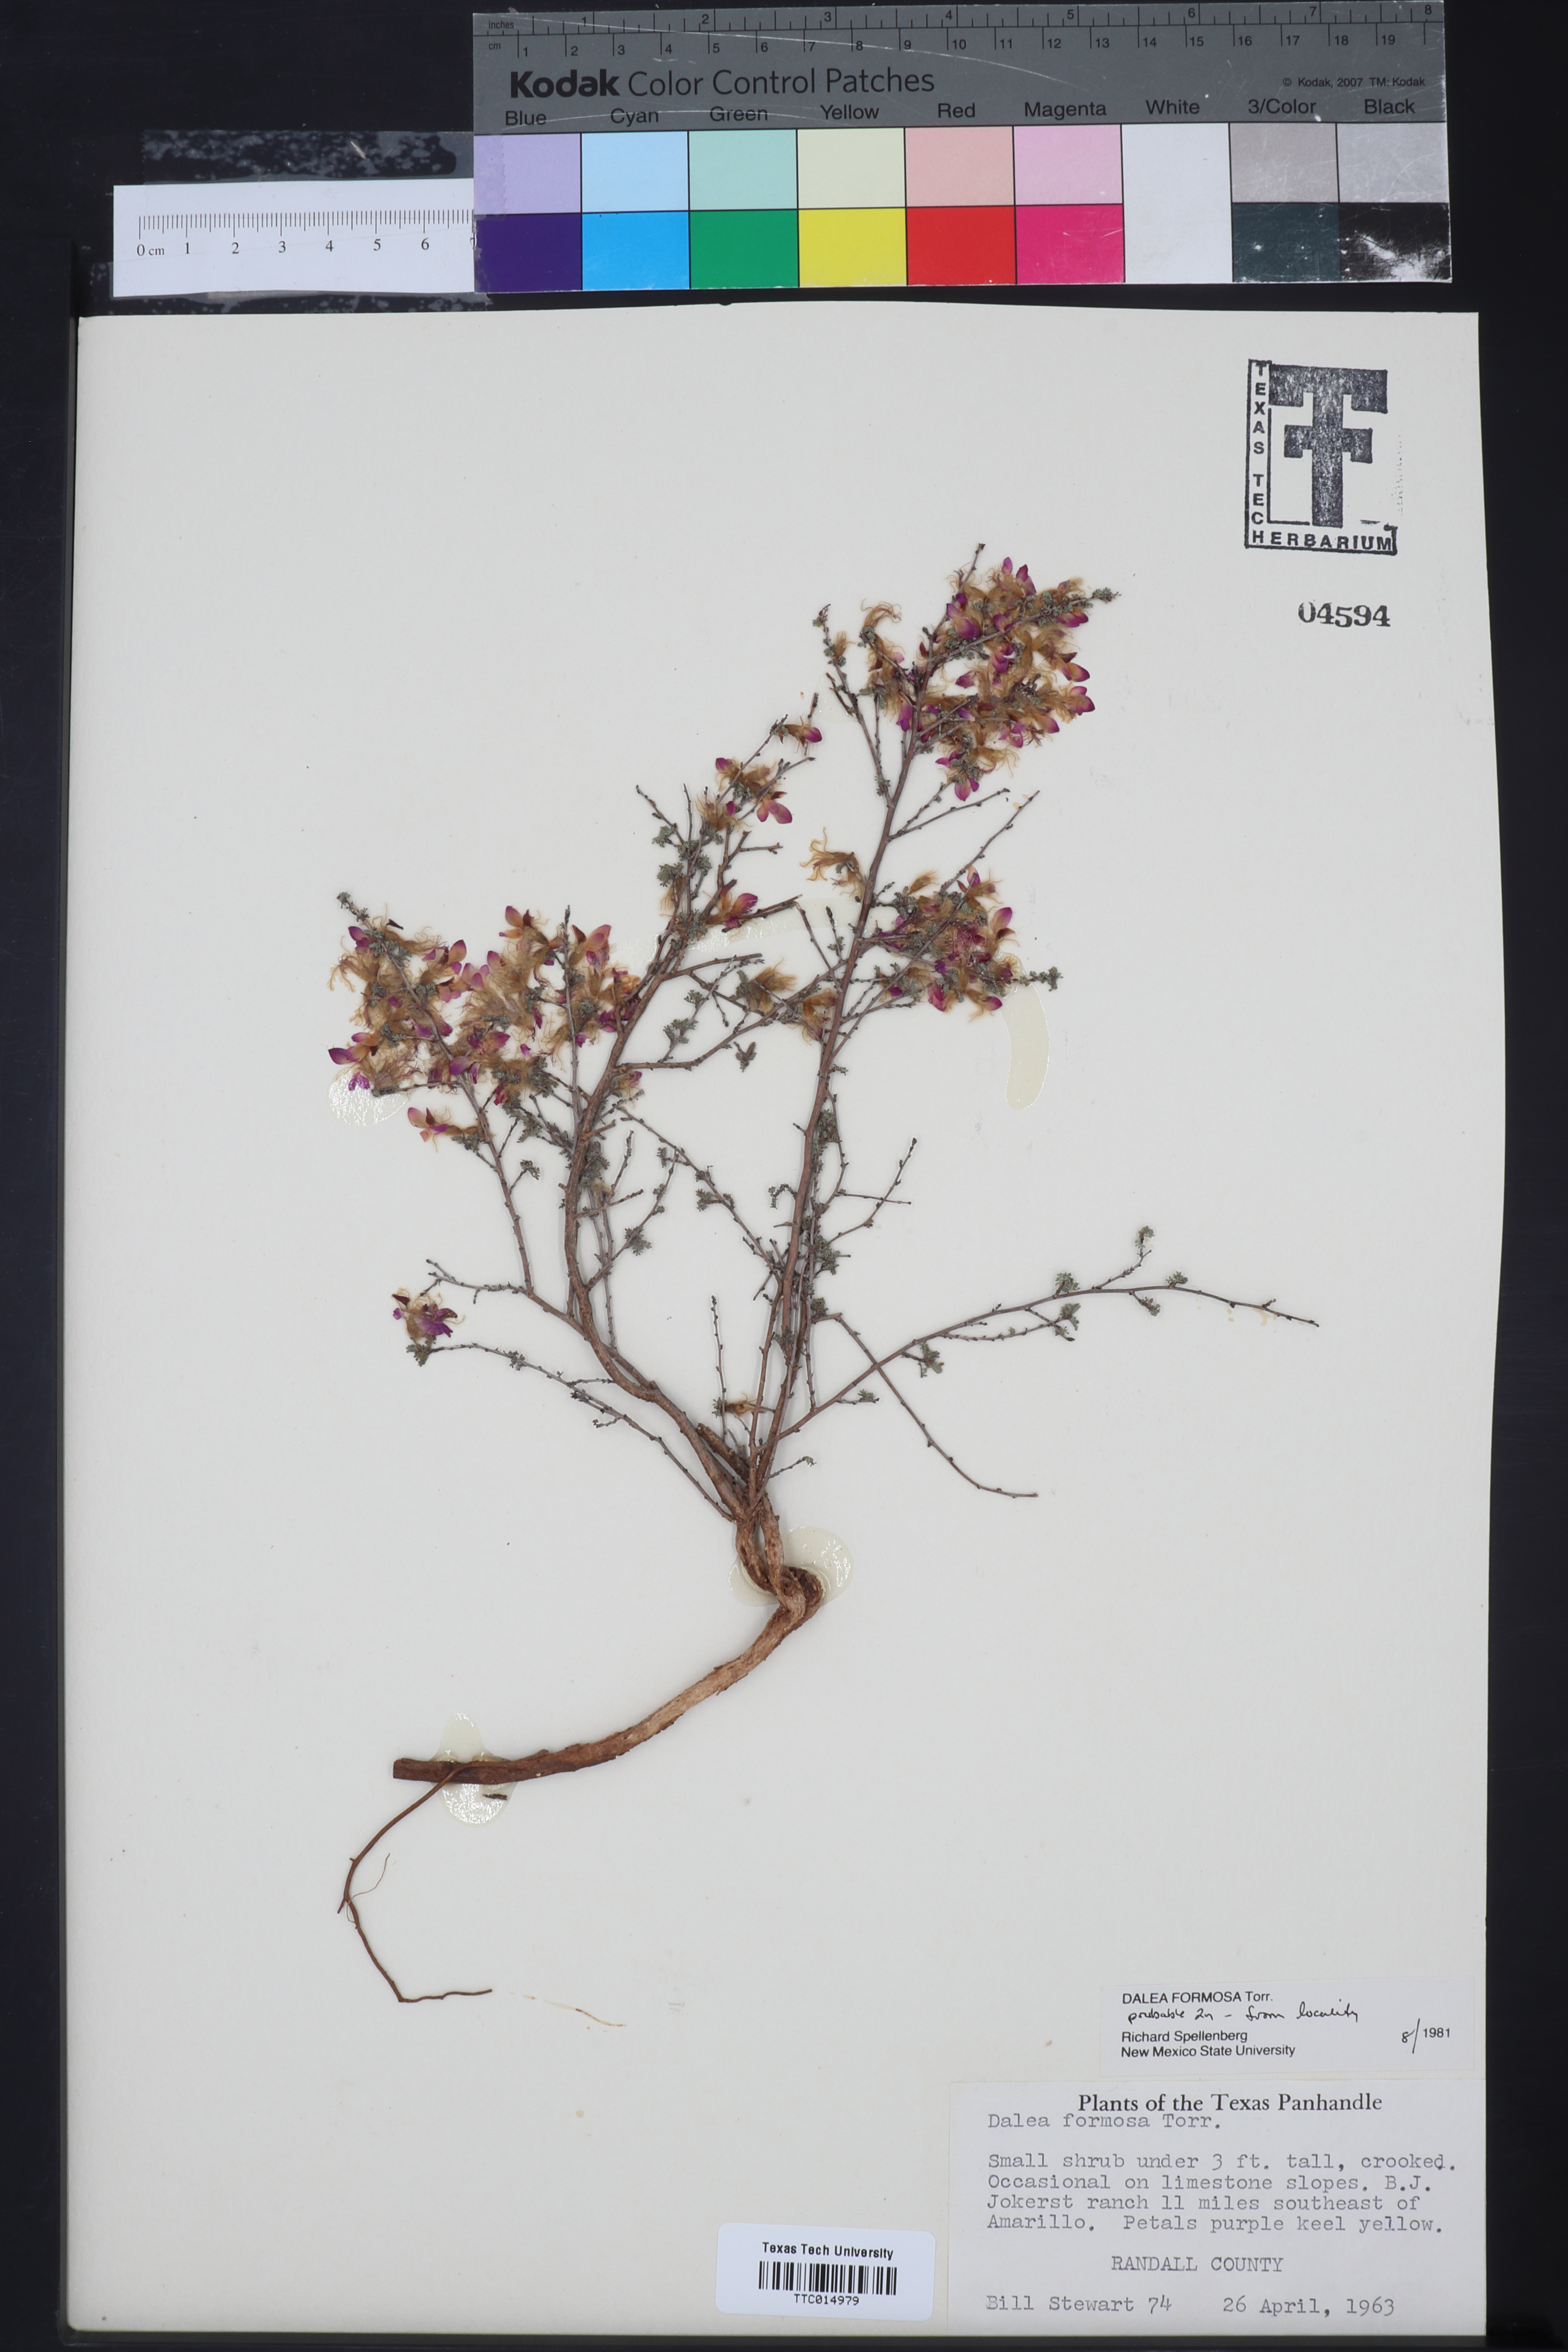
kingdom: Plantae
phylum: Tracheophyta
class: Magnoliopsida
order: Fabales
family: Fabaceae
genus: Dalea
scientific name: Dalea formosa
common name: Feather-plume dalea
